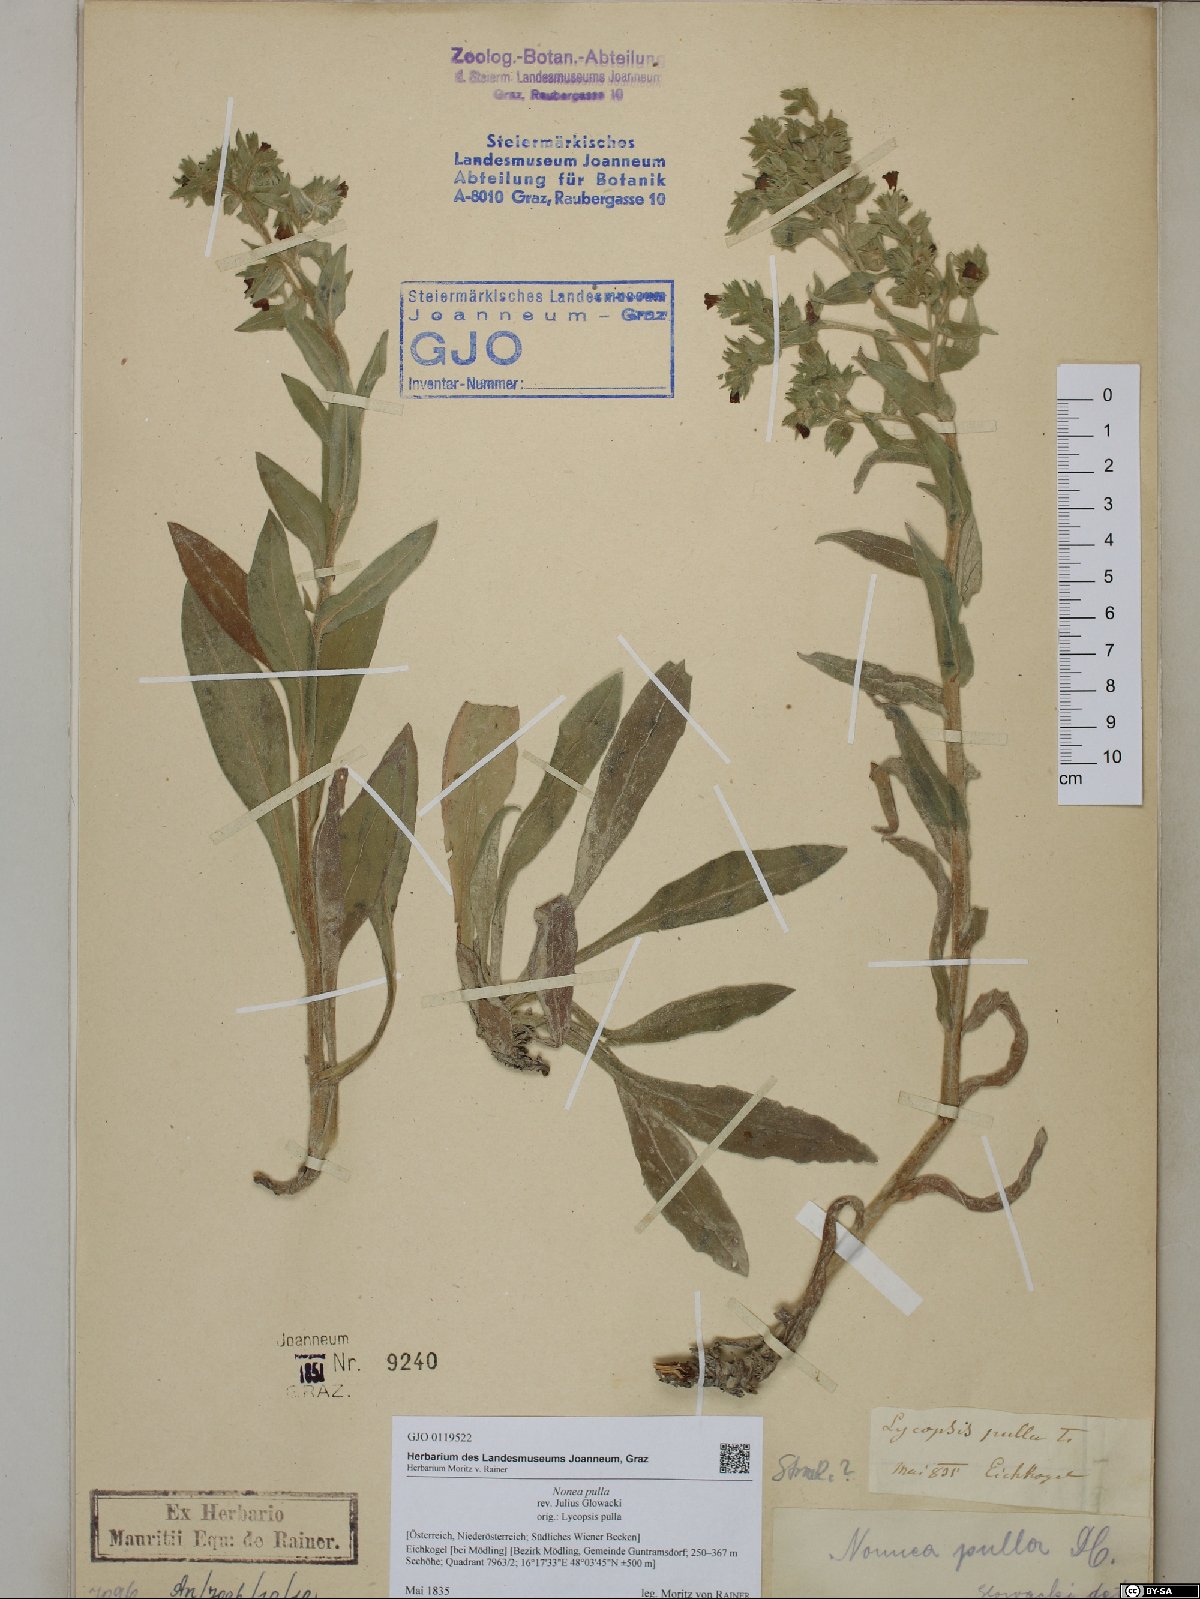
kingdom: Plantae
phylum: Tracheophyta
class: Magnoliopsida
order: Boraginales
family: Boraginaceae
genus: Nonea
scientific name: Nonea pulla
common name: Brown nonea
